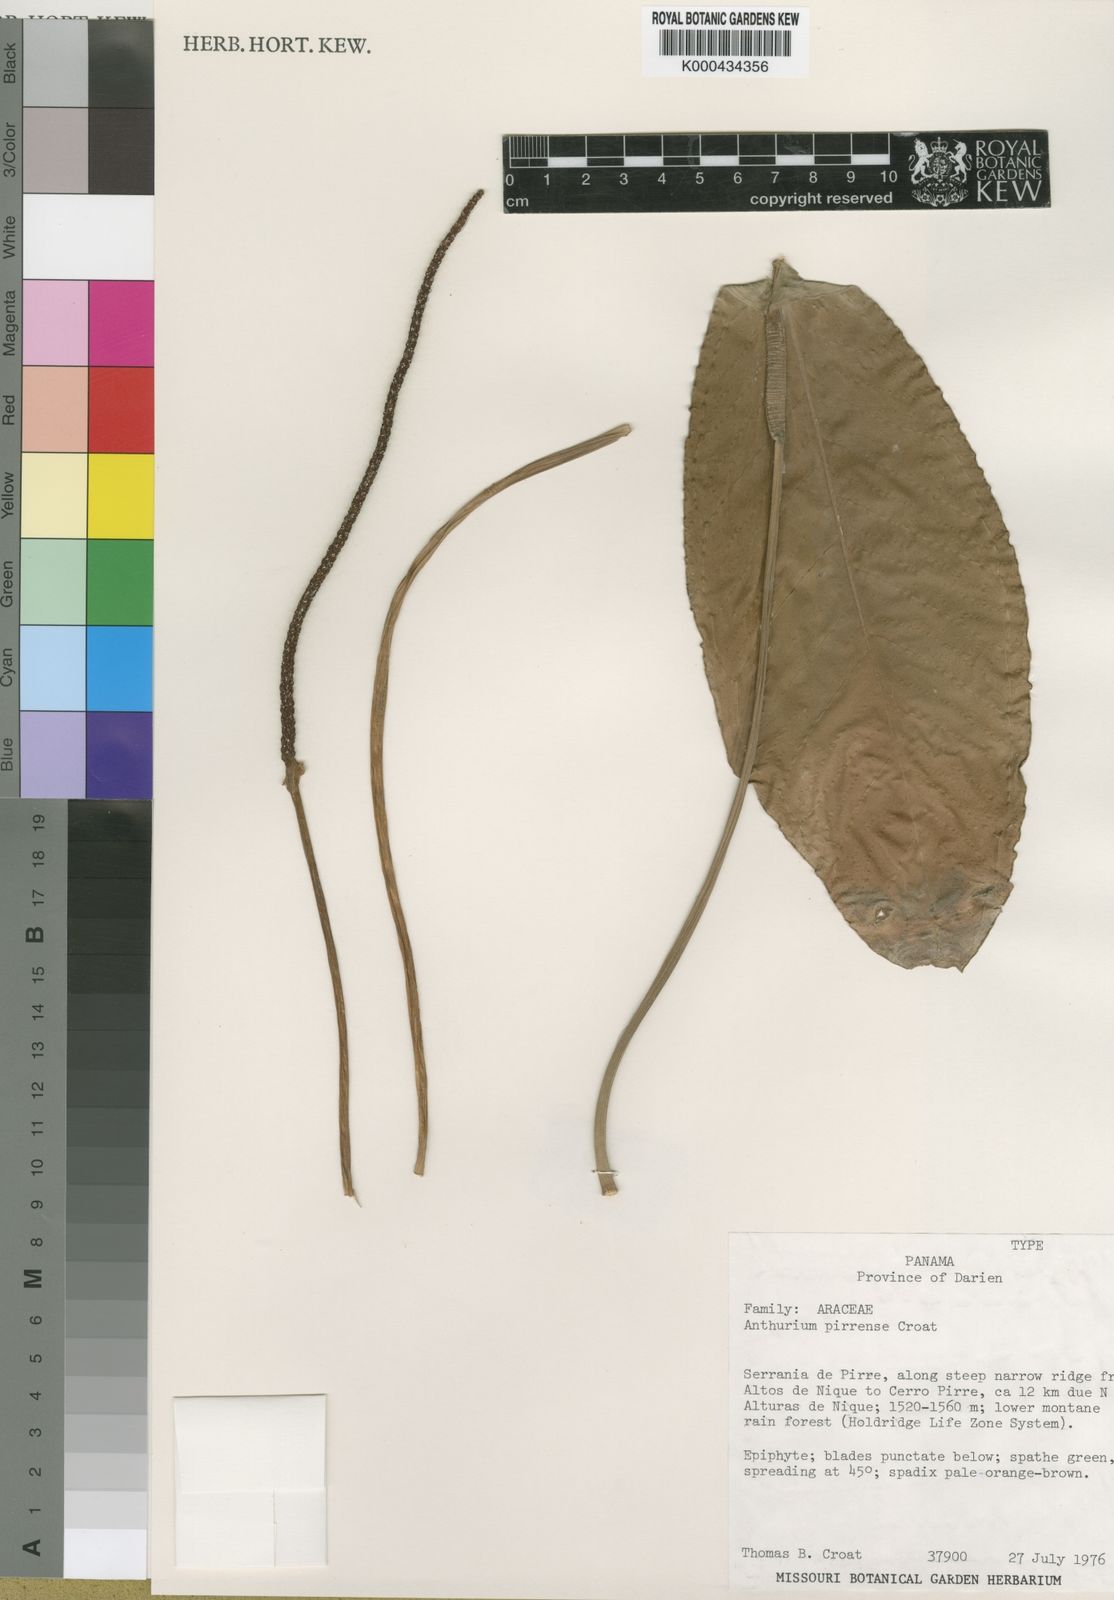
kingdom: Plantae
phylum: Tracheophyta
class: Liliopsida
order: Alismatales
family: Araceae
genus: Anthurium
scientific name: Anthurium pirrense
